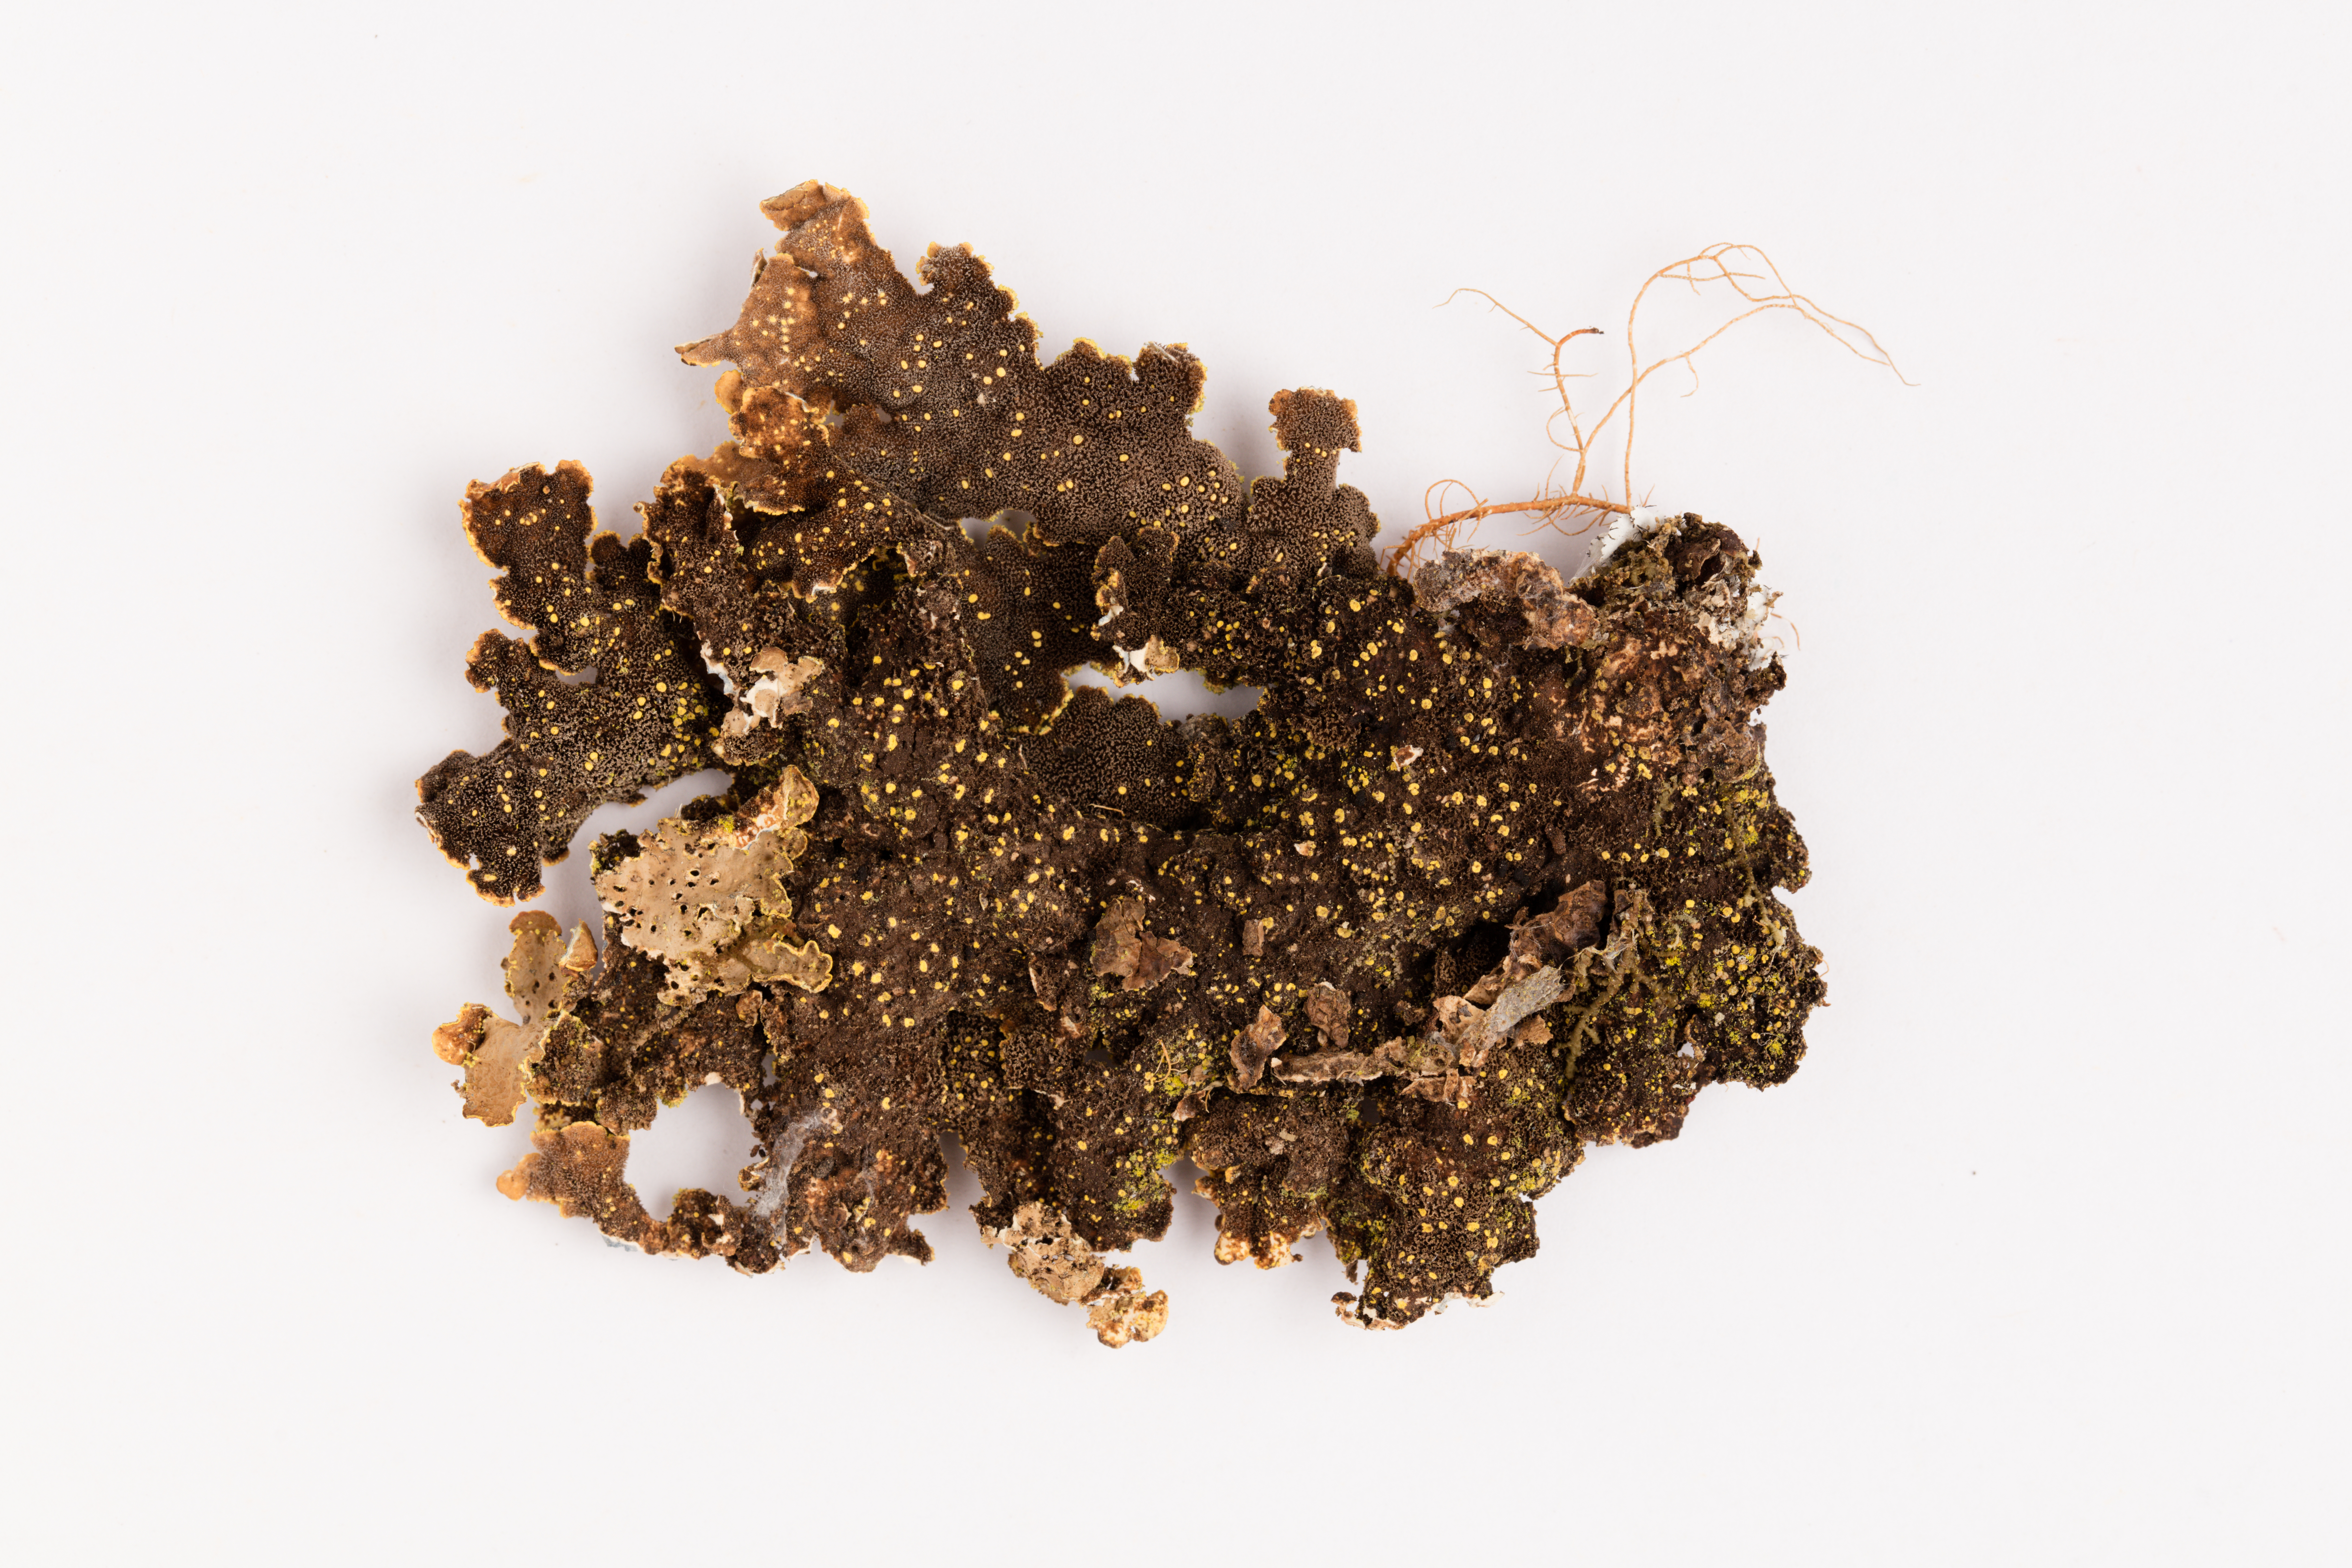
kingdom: Fungi
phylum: Ascomycota
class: Lecanoromycetes
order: Peltigerales
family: Lobariaceae
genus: Pseudocyphellaria
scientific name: Pseudocyphellaria crocata
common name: Golden specklebelly
